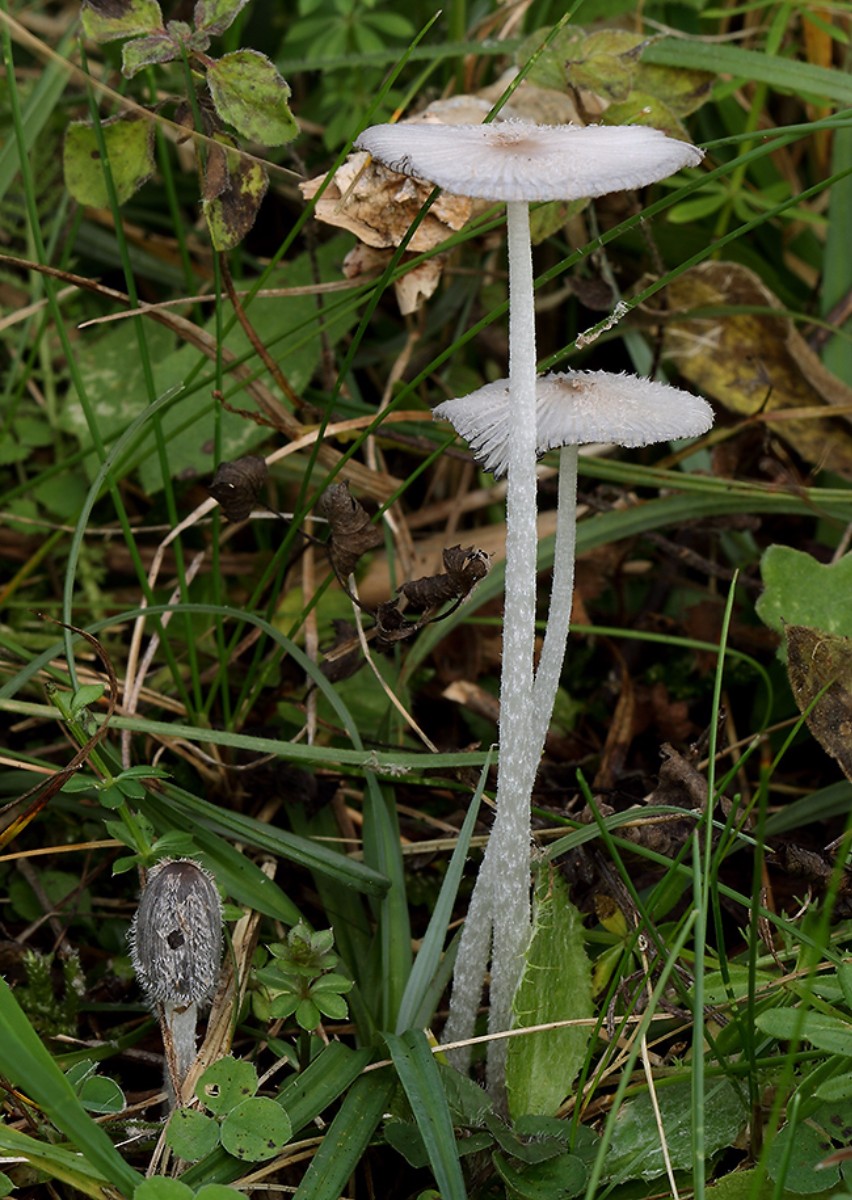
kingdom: Fungi
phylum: Basidiomycota
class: Agaricomycetes
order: Agaricales
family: Psathyrellaceae
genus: Coprinopsis
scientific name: Coprinopsis lagopus
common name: dunstokket blækhat
